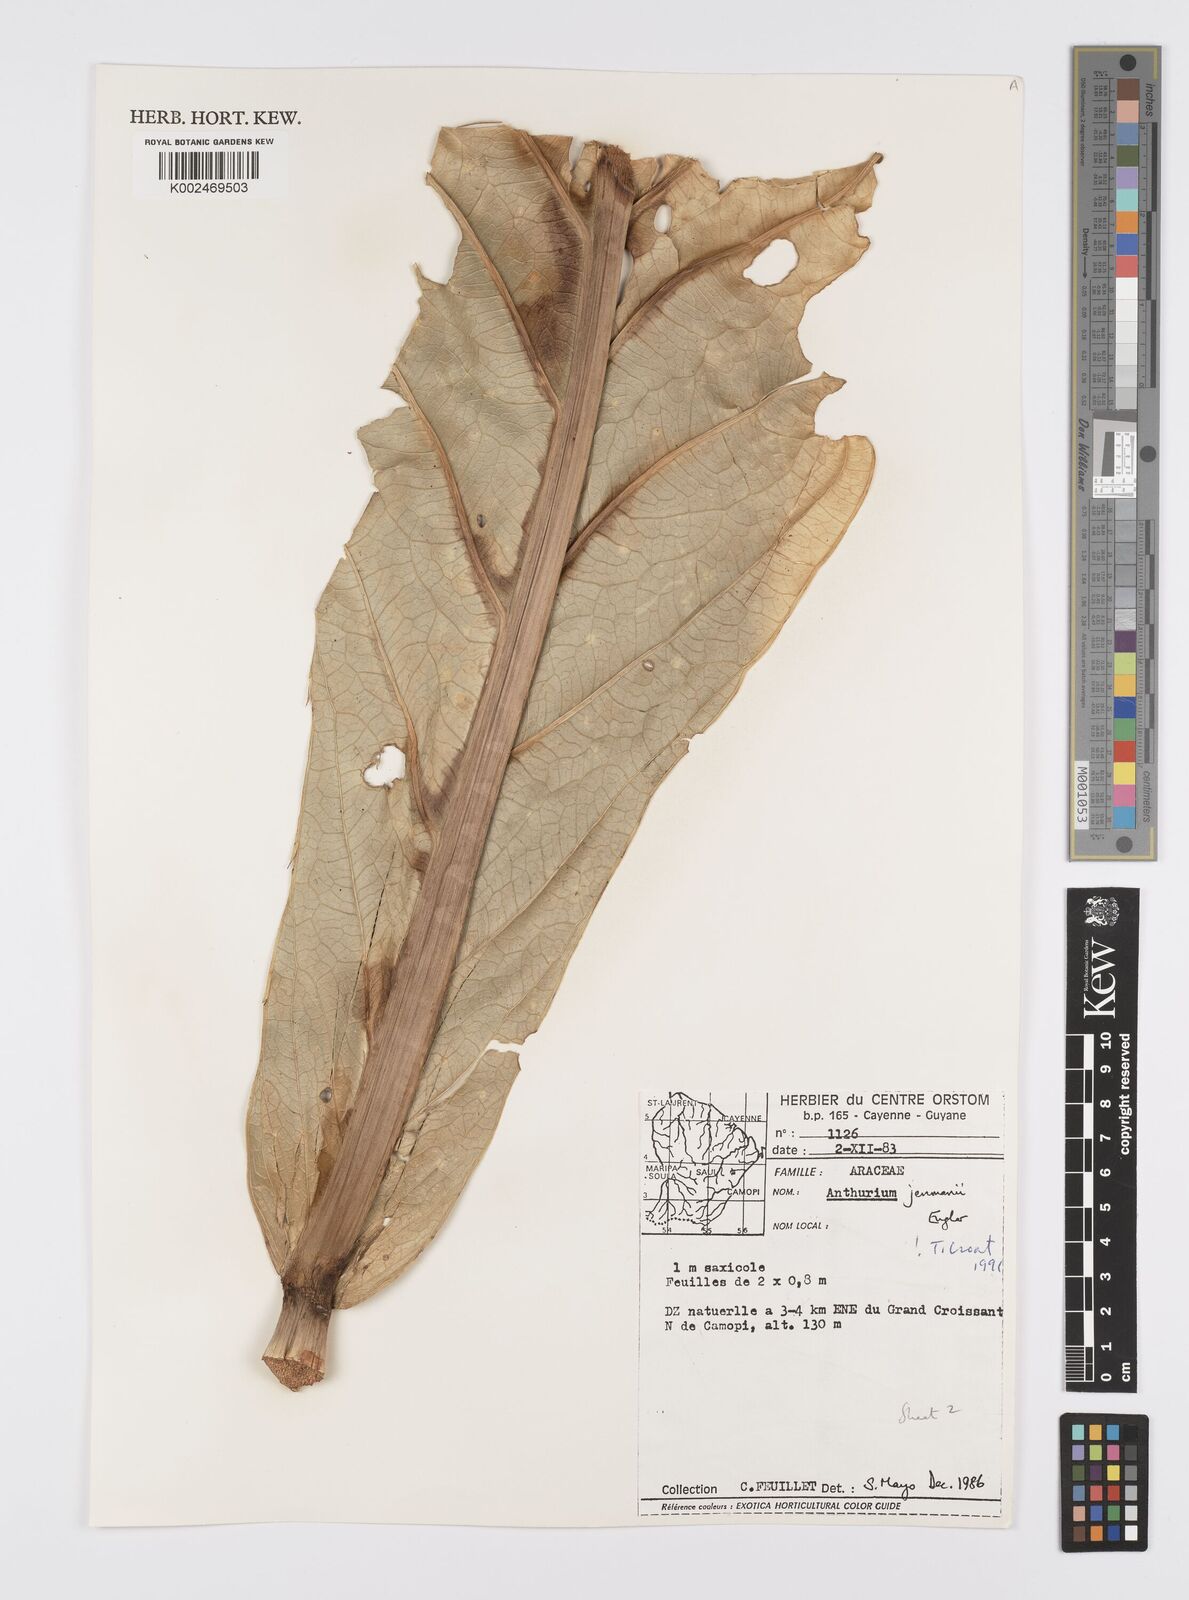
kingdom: Plantae
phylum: Tracheophyta
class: Liliopsida
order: Alismatales
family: Araceae
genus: Anthurium
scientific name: Anthurium jenmanii
